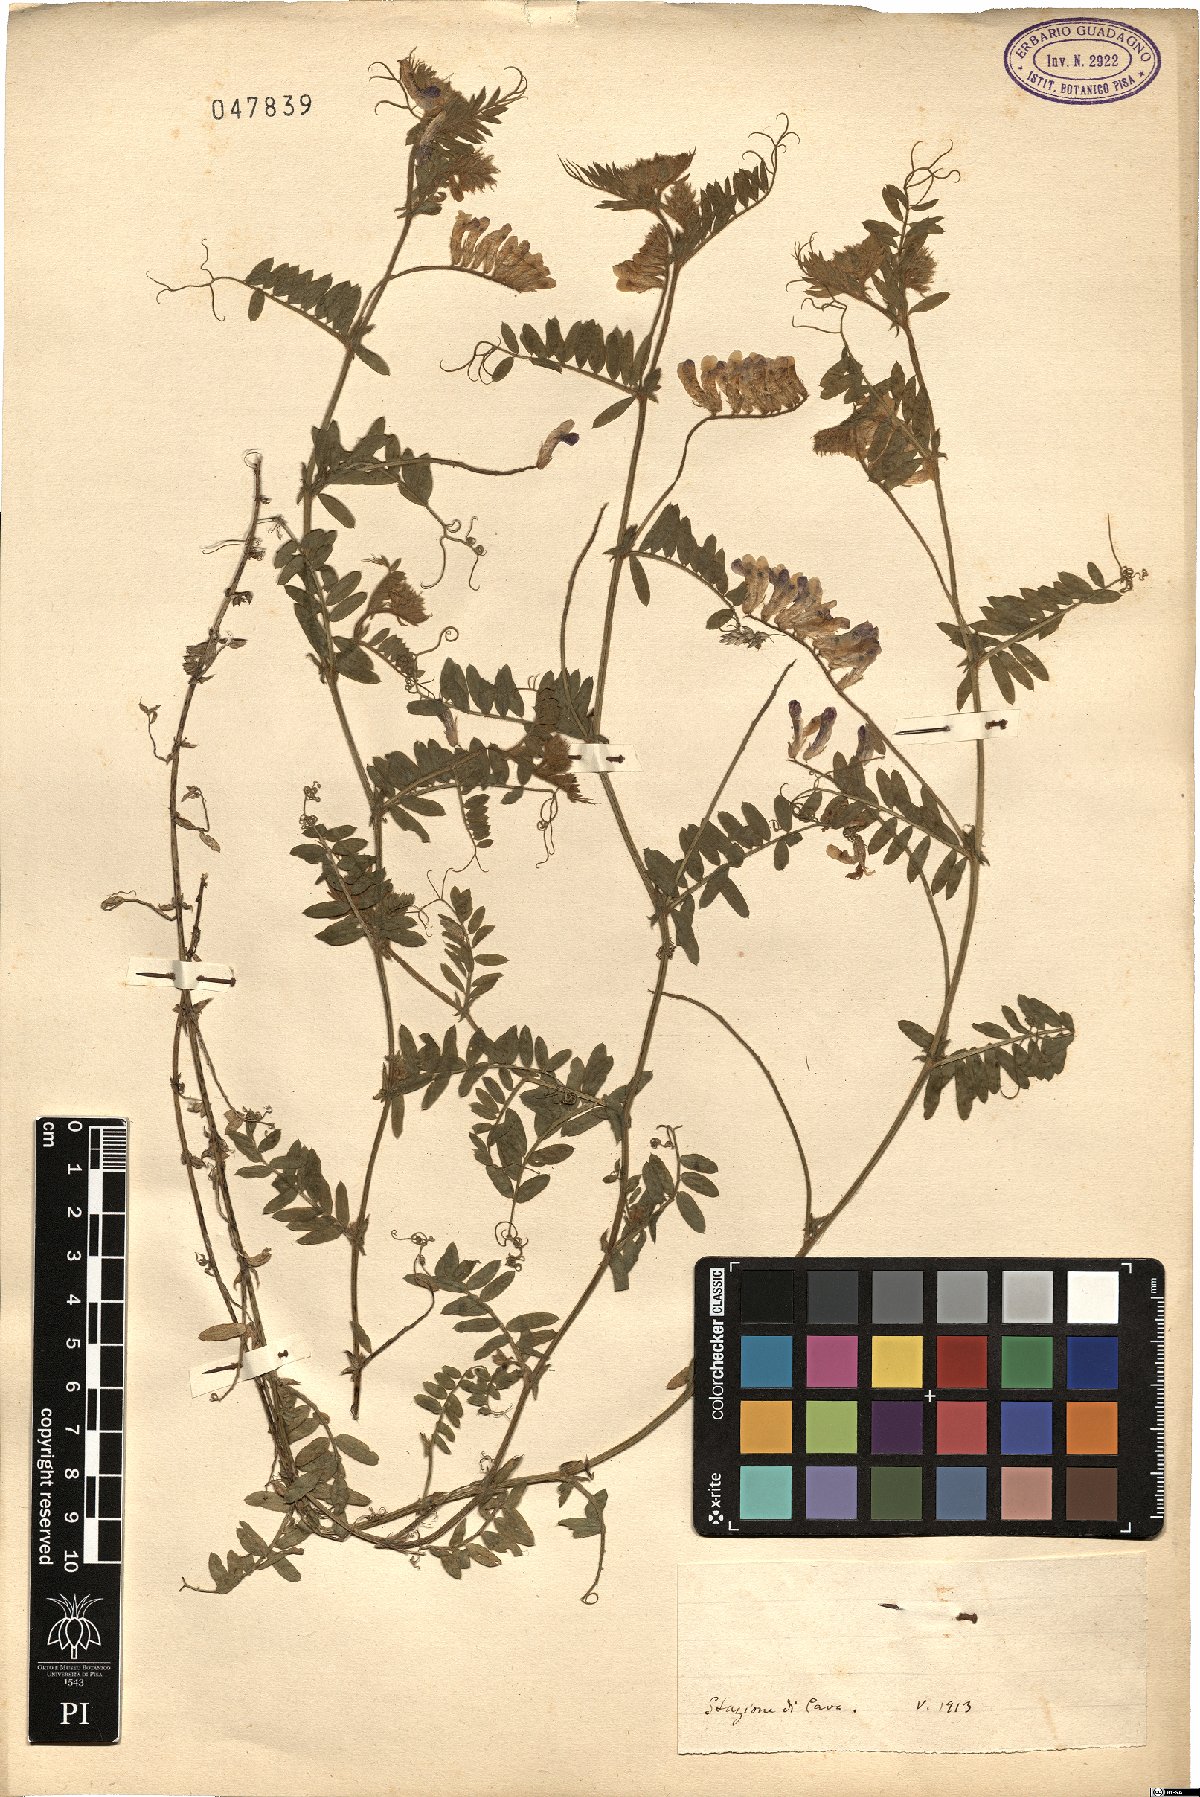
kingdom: Plantae
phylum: Tracheophyta
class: Magnoliopsida
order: Fabales
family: Fabaceae
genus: Vicia
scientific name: Vicia
